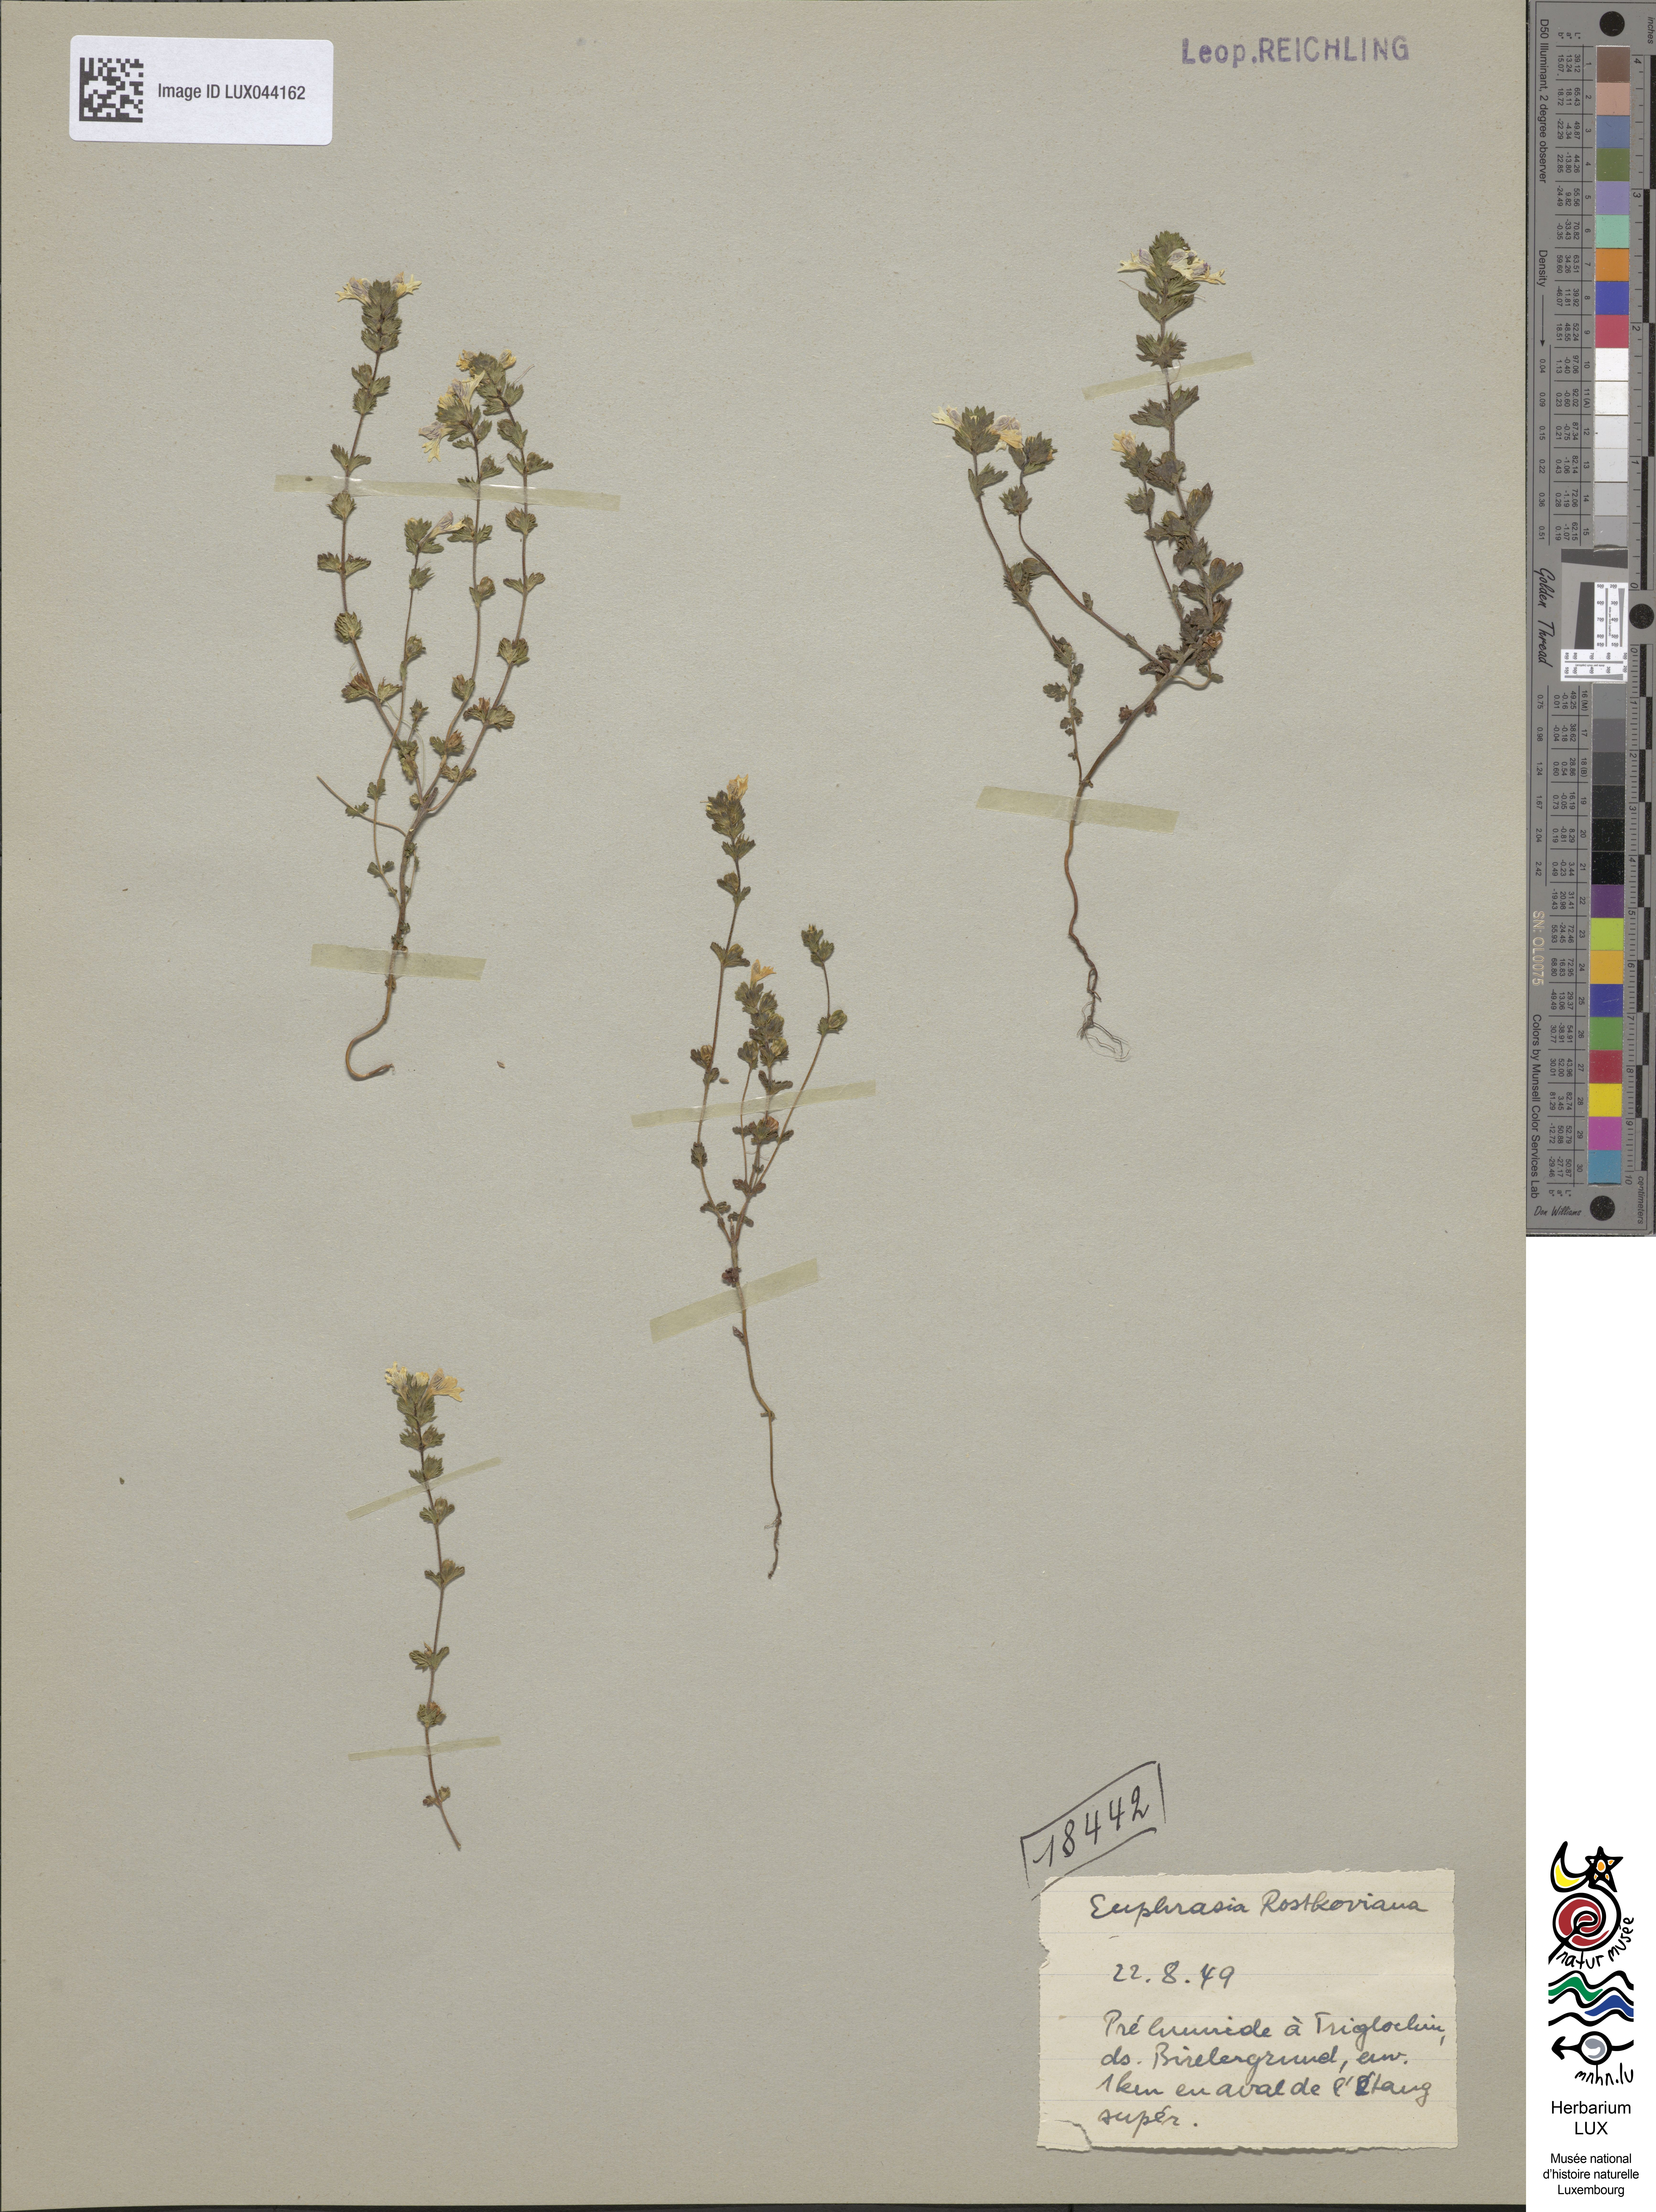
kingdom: Plantae
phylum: Tracheophyta
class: Magnoliopsida
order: Lamiales
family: Orobanchaceae
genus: Euphrasia
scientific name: Euphrasia officinalis
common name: Eyebright
